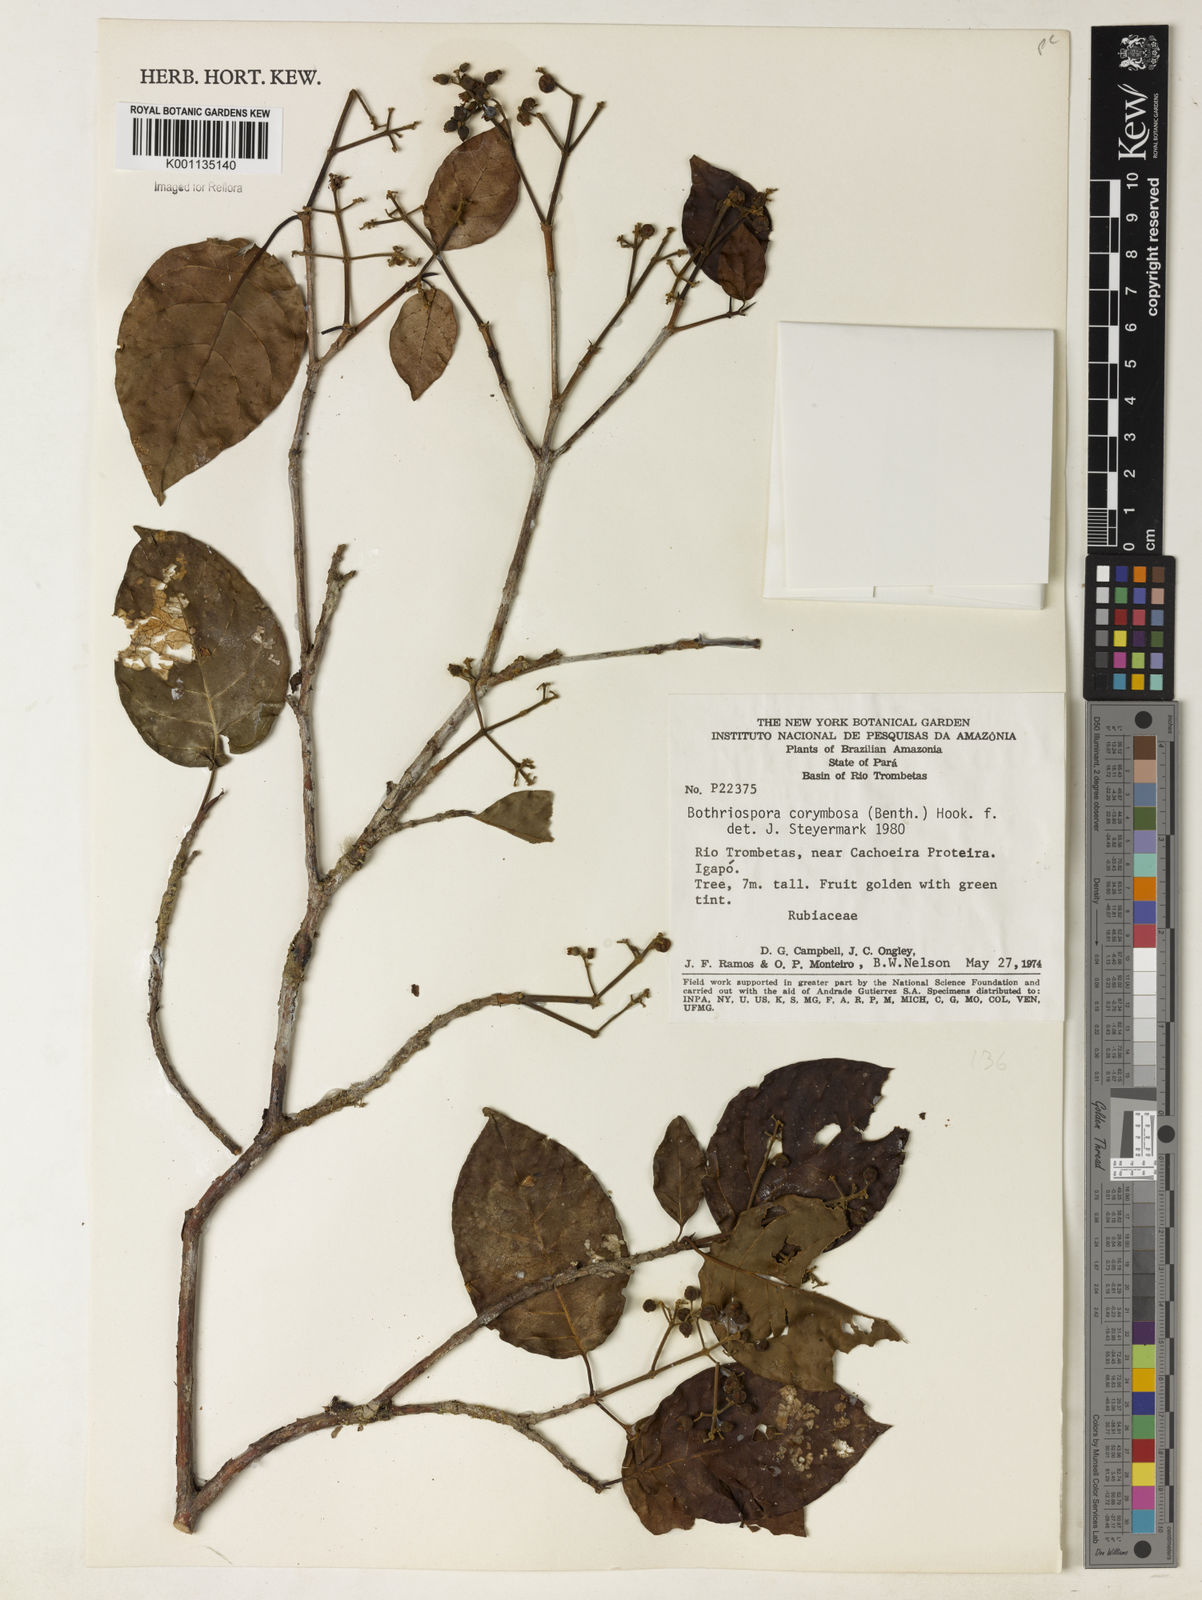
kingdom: Plantae
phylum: Tracheophyta
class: Magnoliopsida
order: Gentianales
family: Rubiaceae
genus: Bothriospora
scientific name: Bothriospora corymbosa
